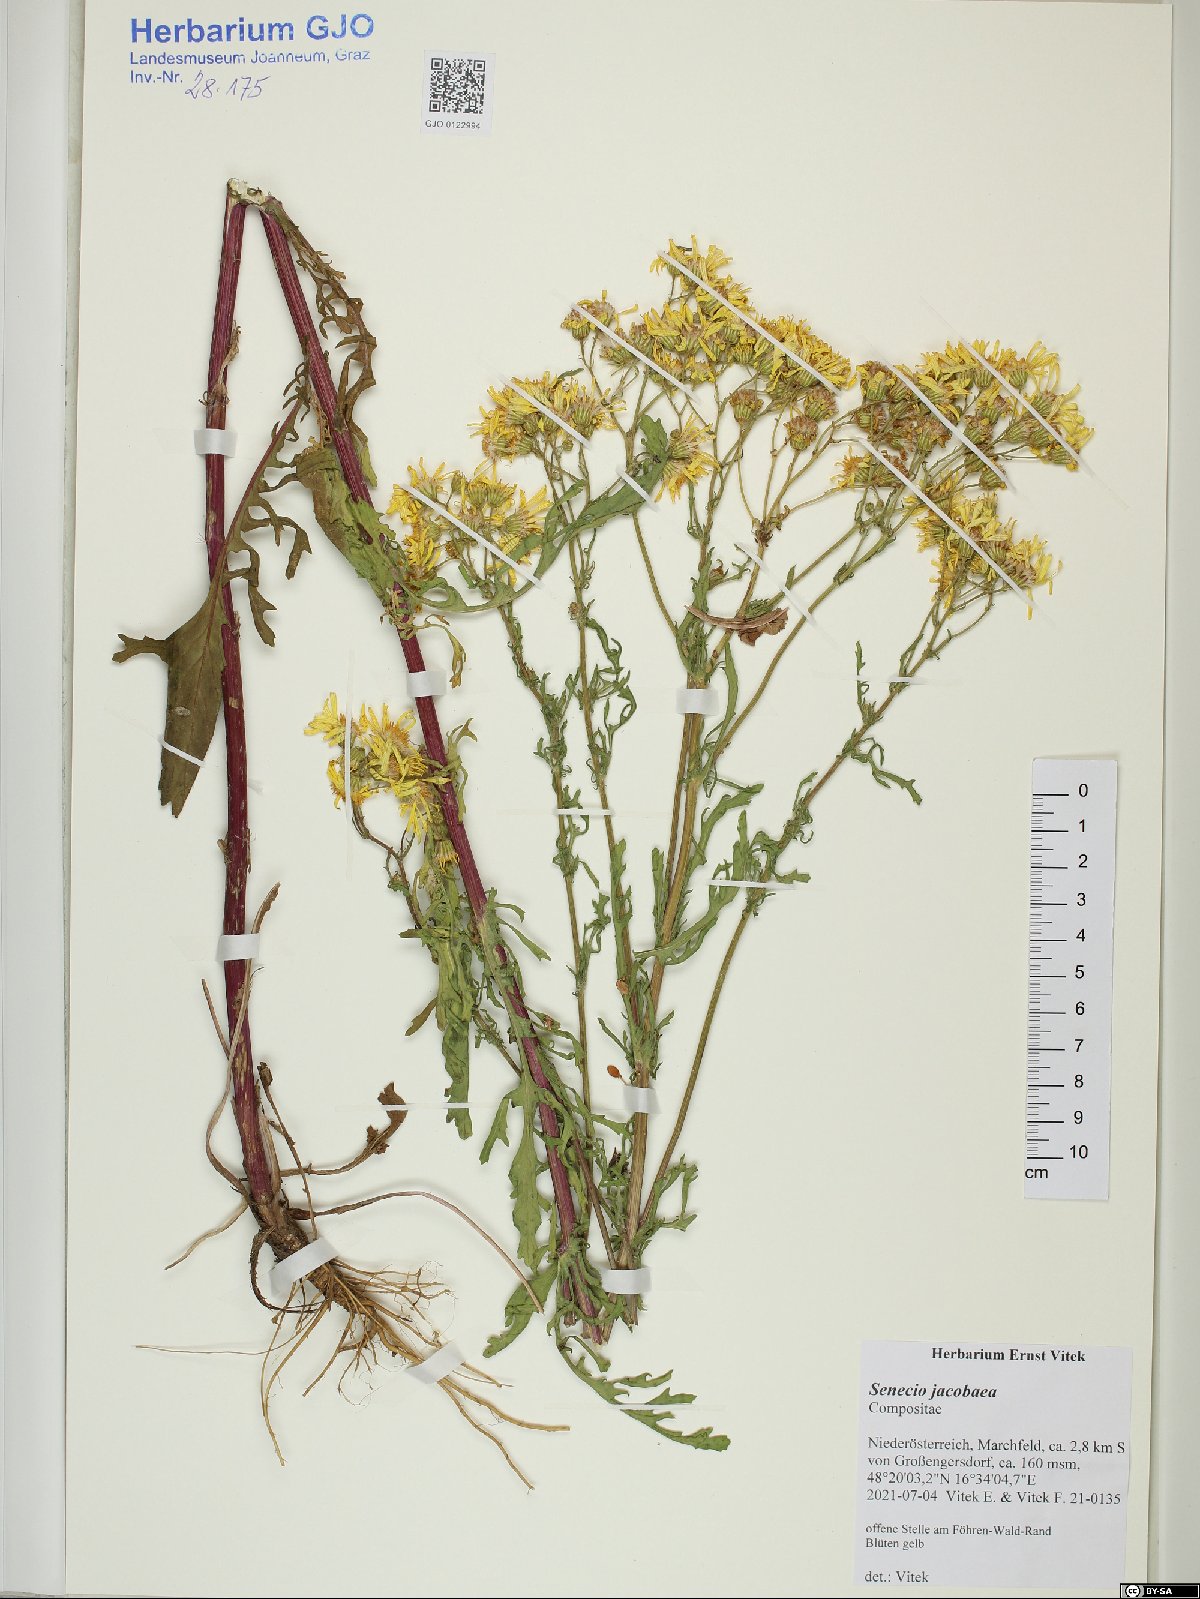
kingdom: Plantae
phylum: Tracheophyta
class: Magnoliopsida
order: Asterales
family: Asteraceae
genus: Jacobaea
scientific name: Jacobaea vulgaris
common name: Stinking willie
